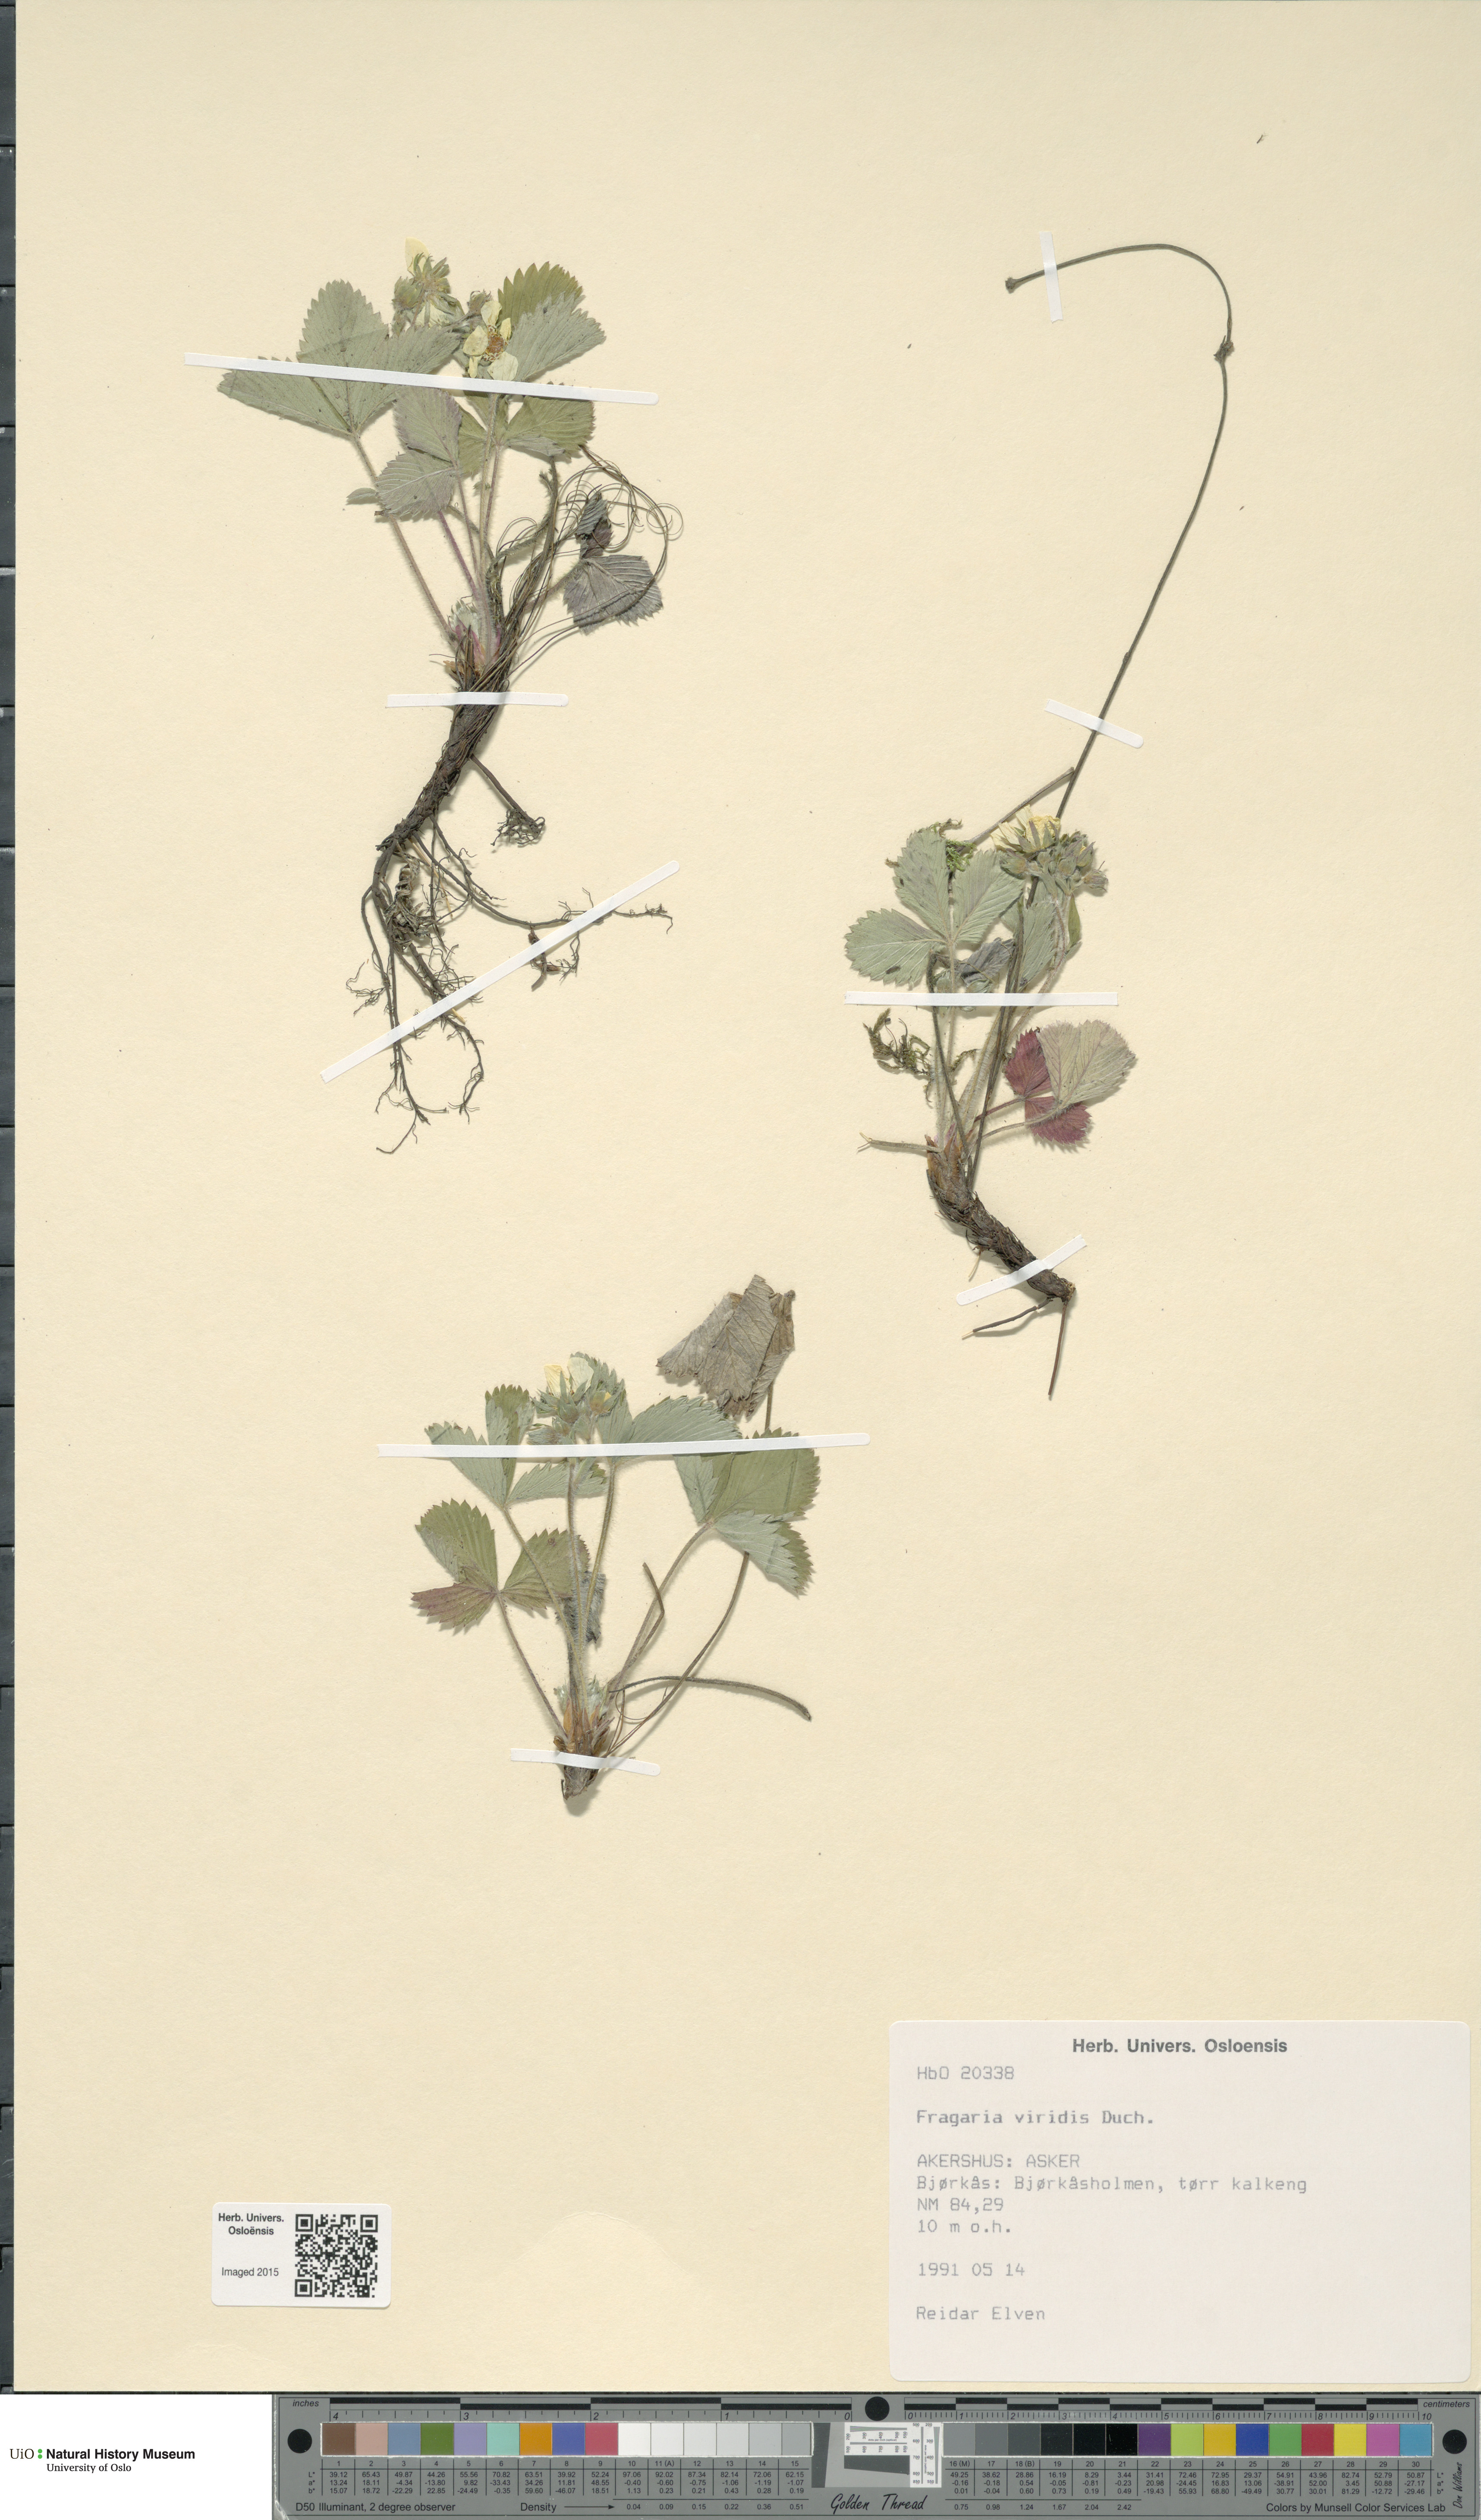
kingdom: Plantae
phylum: Tracheophyta
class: Magnoliopsida
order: Rosales
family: Rosaceae
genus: Fragaria
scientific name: Fragaria viridis
